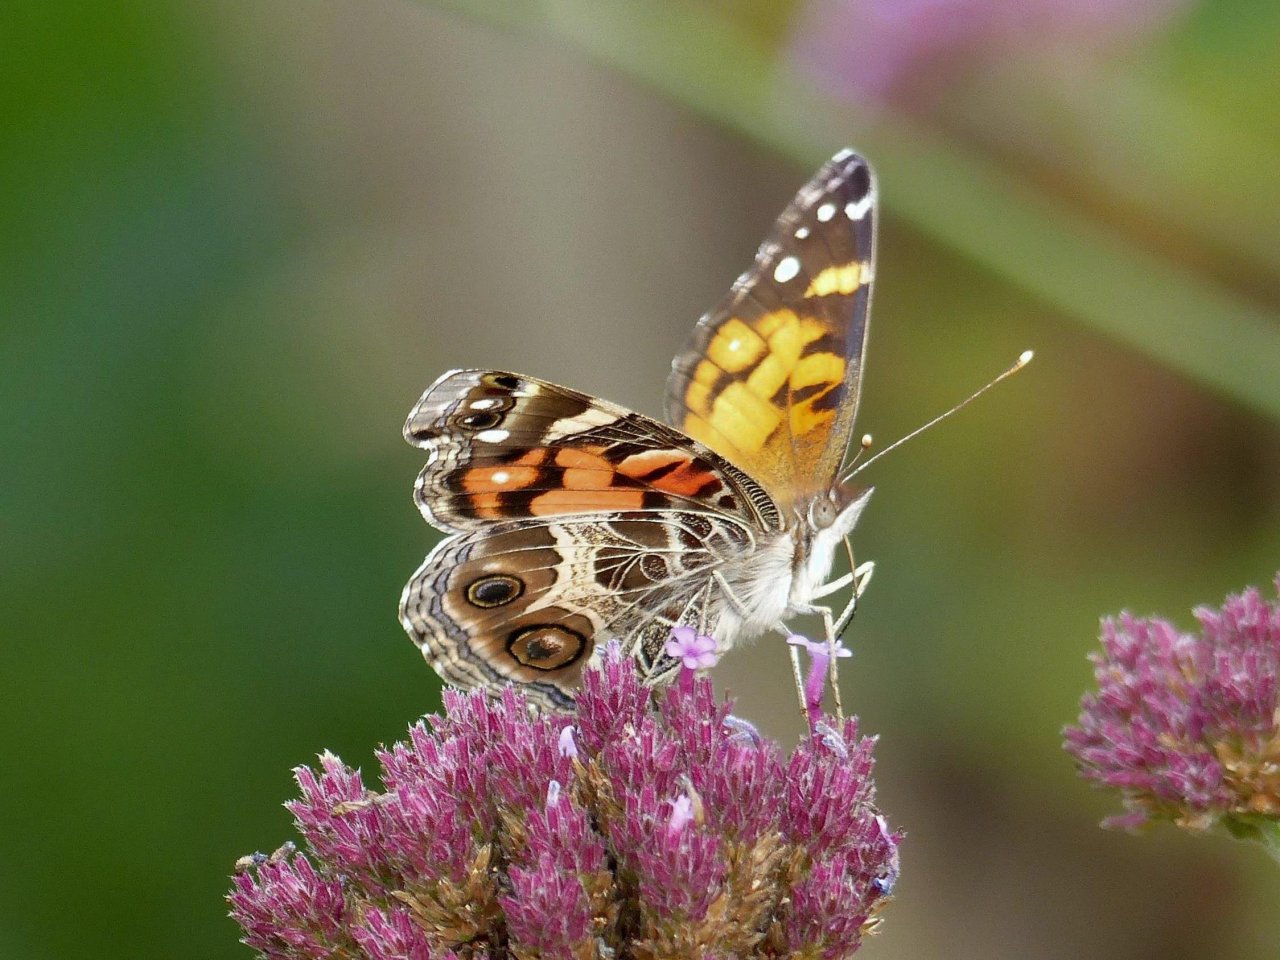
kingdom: Animalia
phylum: Arthropoda
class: Insecta
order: Lepidoptera
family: Nymphalidae
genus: Vanessa
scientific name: Vanessa virginiensis
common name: American Lady
